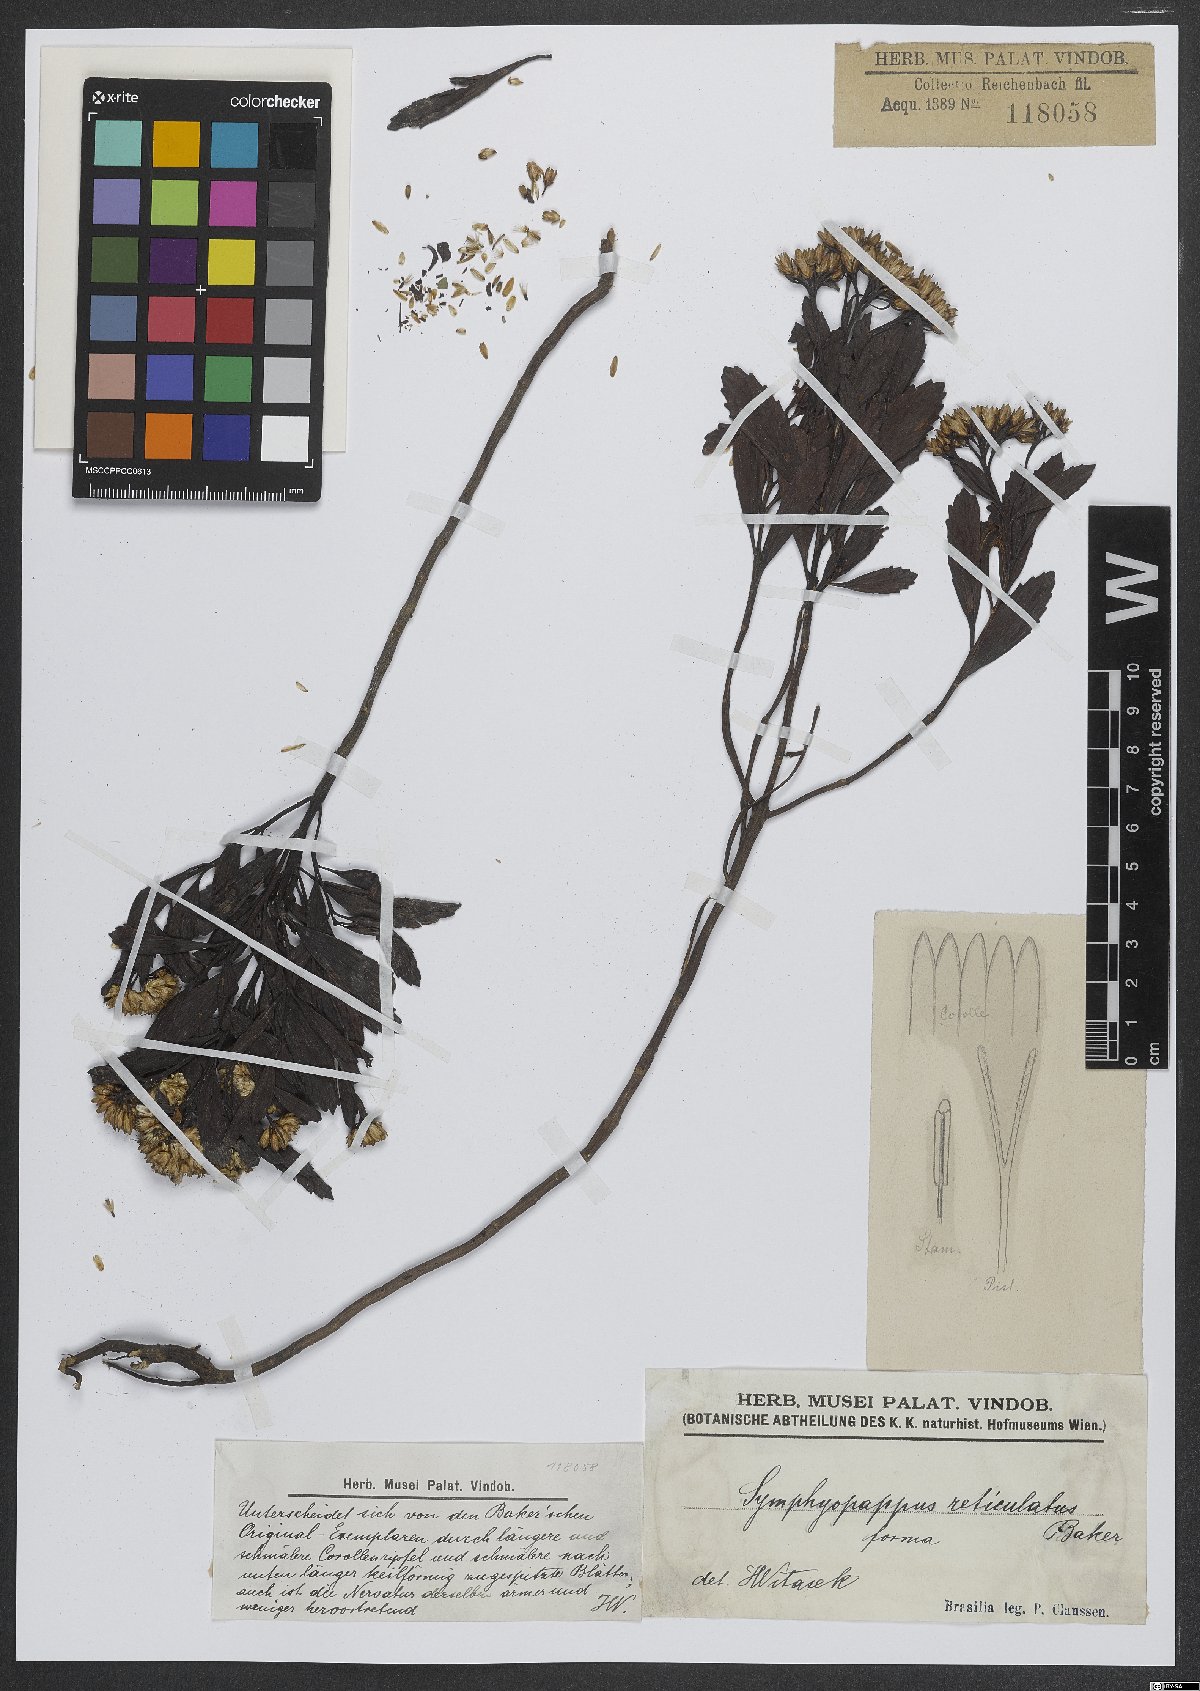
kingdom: Plantae
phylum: Tracheophyta
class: Magnoliopsida
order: Asterales
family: Asteraceae
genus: Symphyopappus
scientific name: Symphyopappus reticulatus
